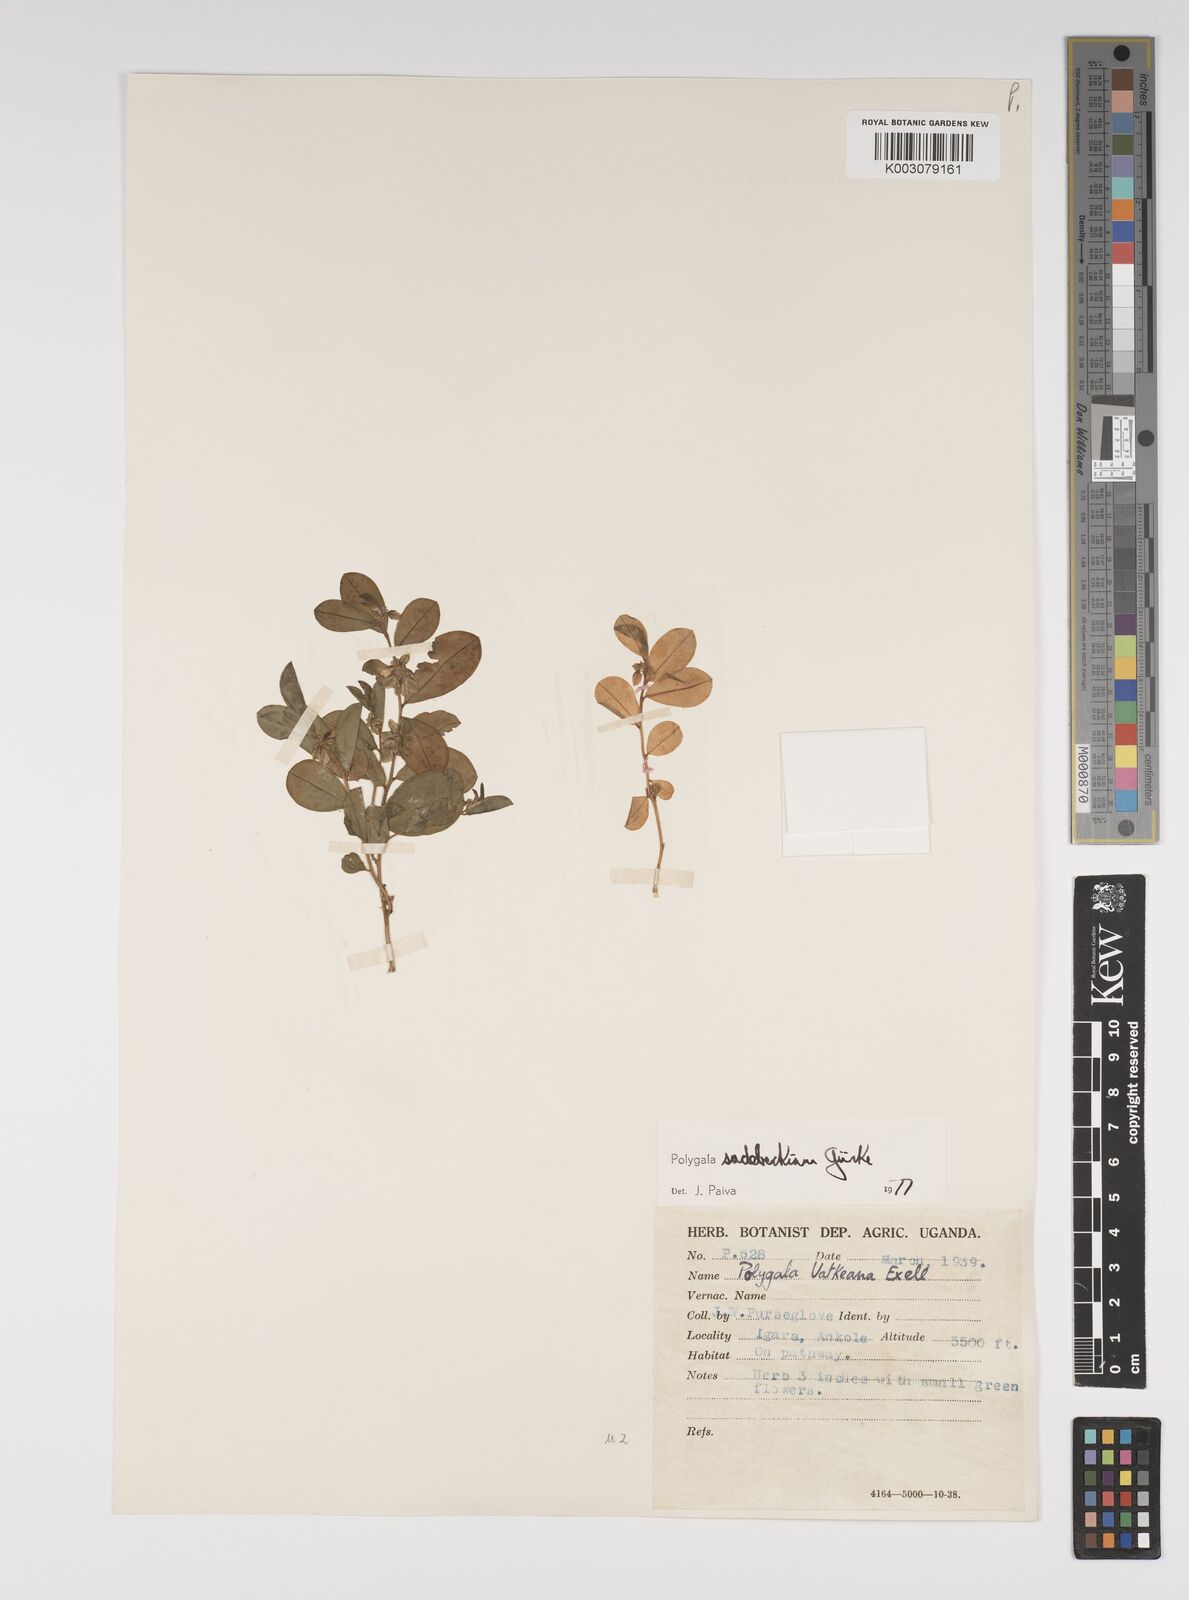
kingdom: Plantae
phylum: Tracheophyta
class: Magnoliopsida
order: Fabales
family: Polygalaceae
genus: Polygala
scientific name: Polygala sadebeckiana
